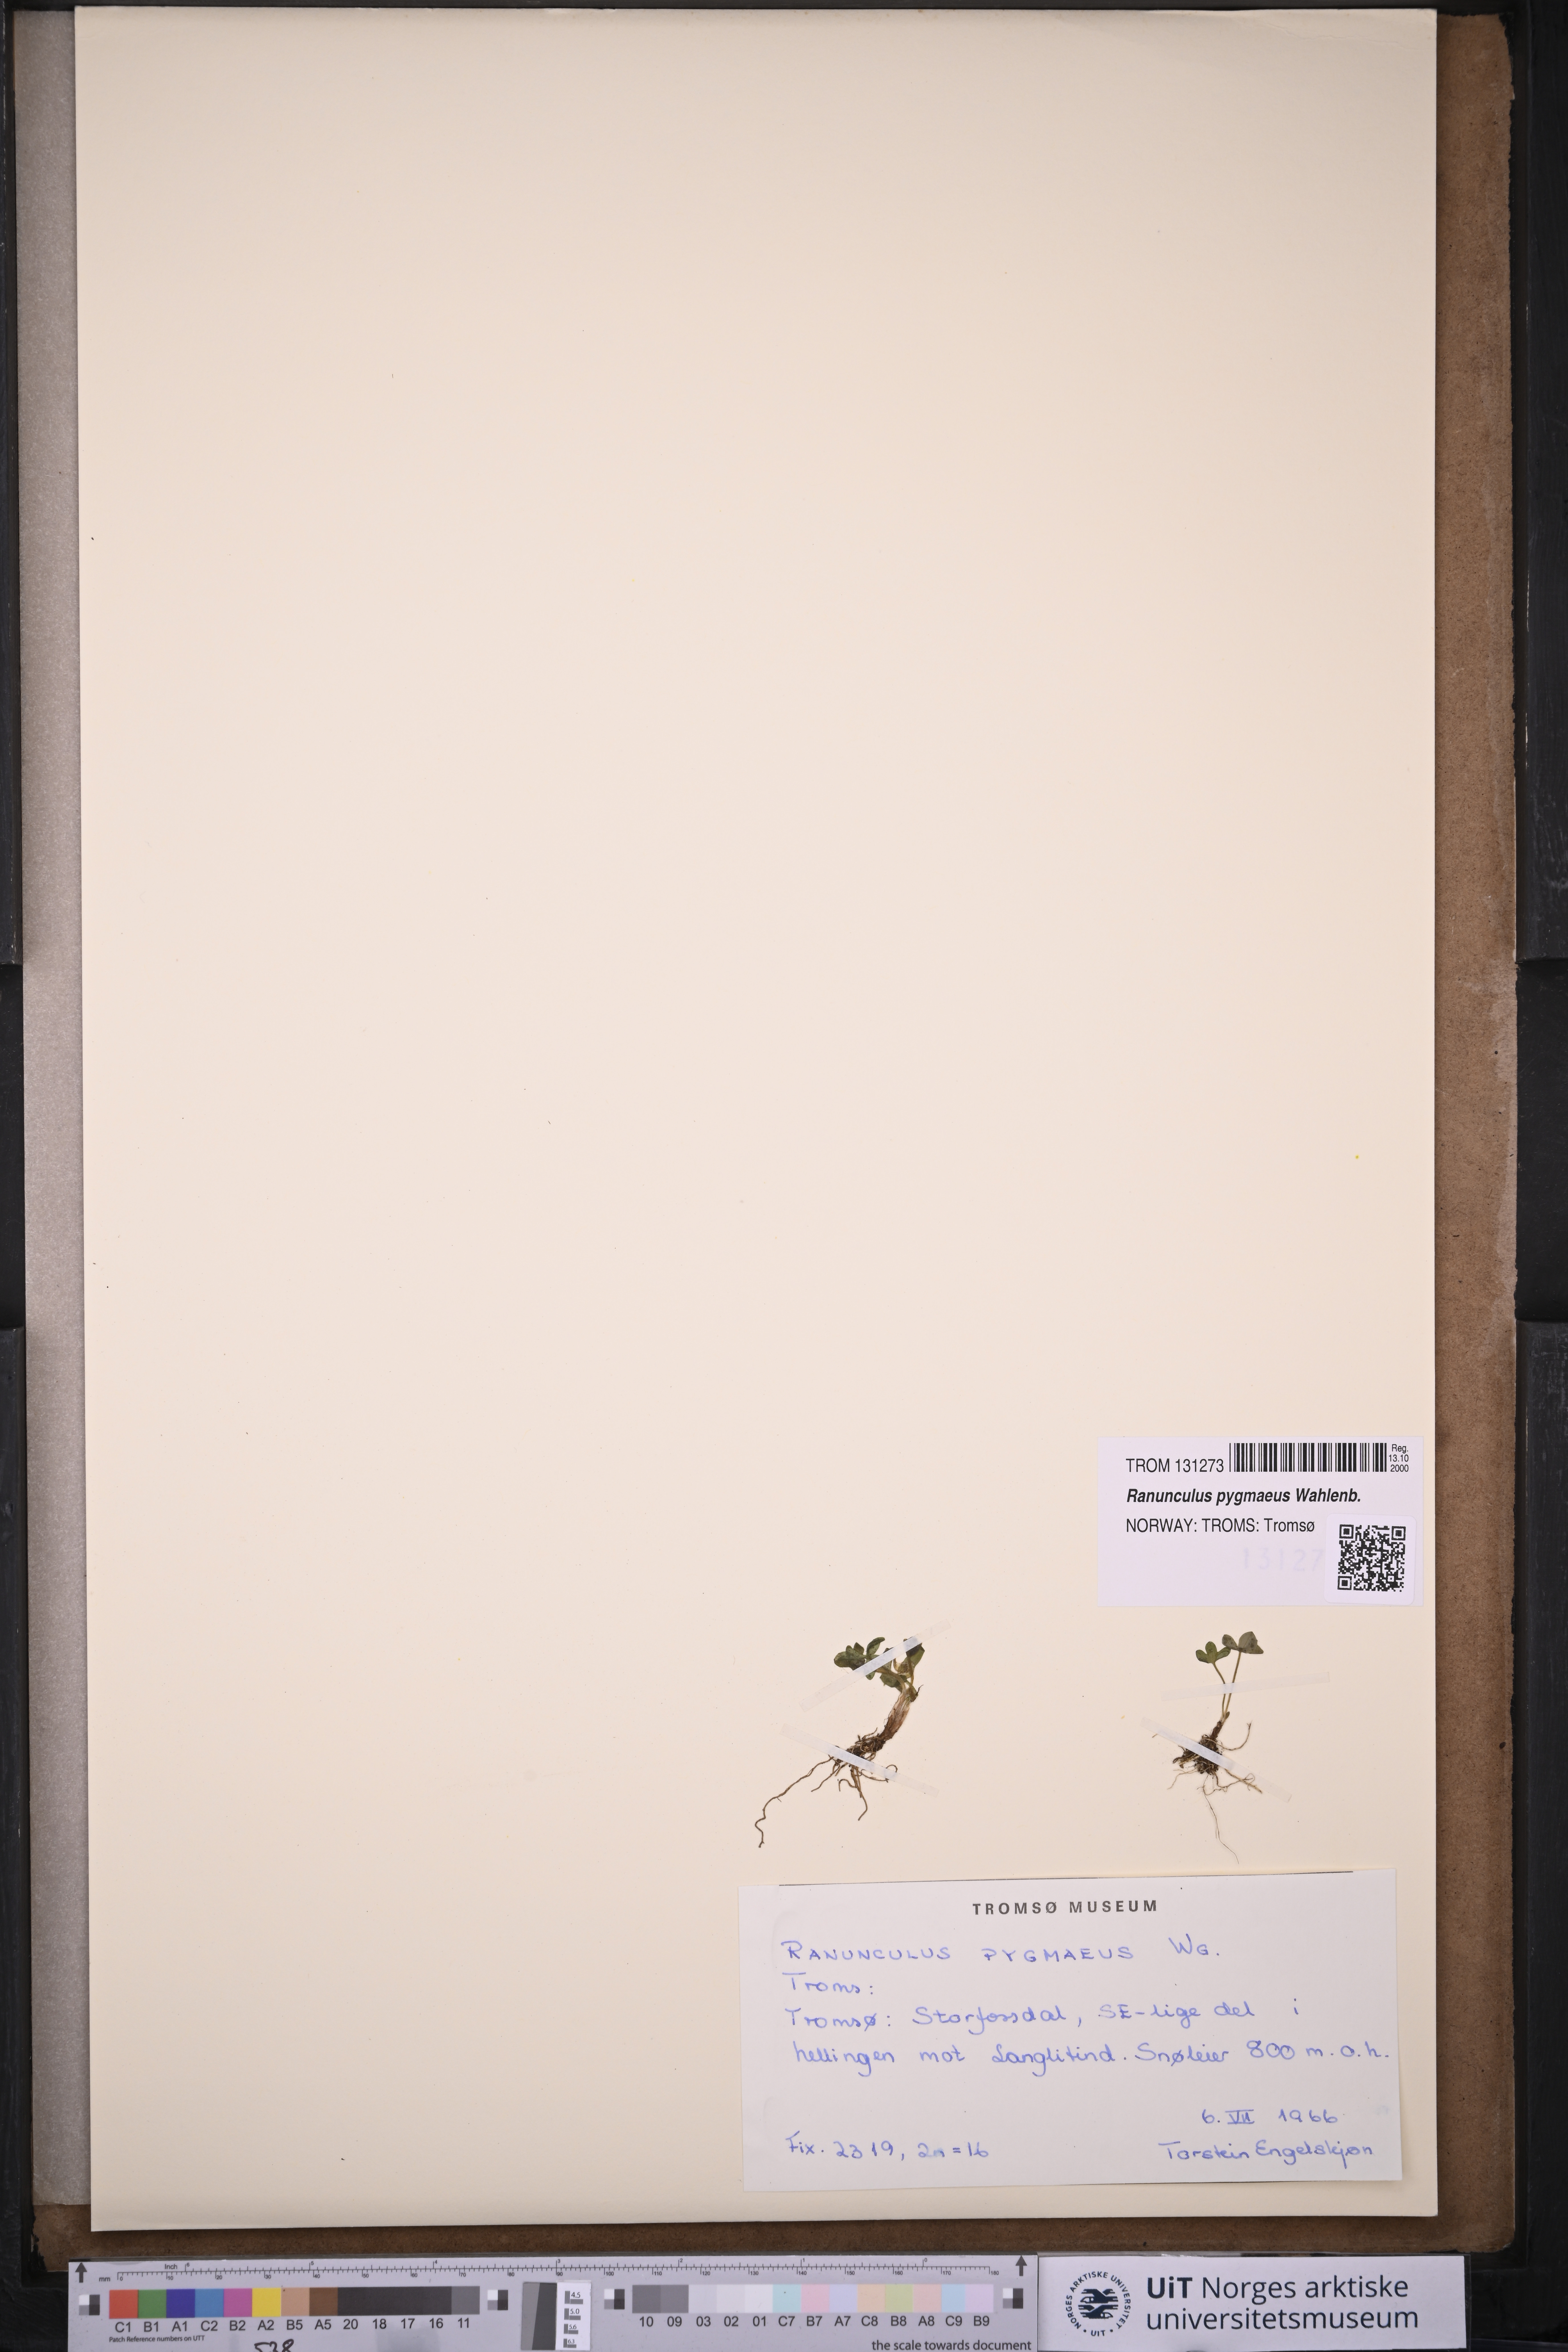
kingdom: Plantae
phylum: Tracheophyta
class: Magnoliopsida
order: Ranunculales
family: Ranunculaceae
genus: Ranunculus
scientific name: Ranunculus pygmaeus
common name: Dwarf buttercup
